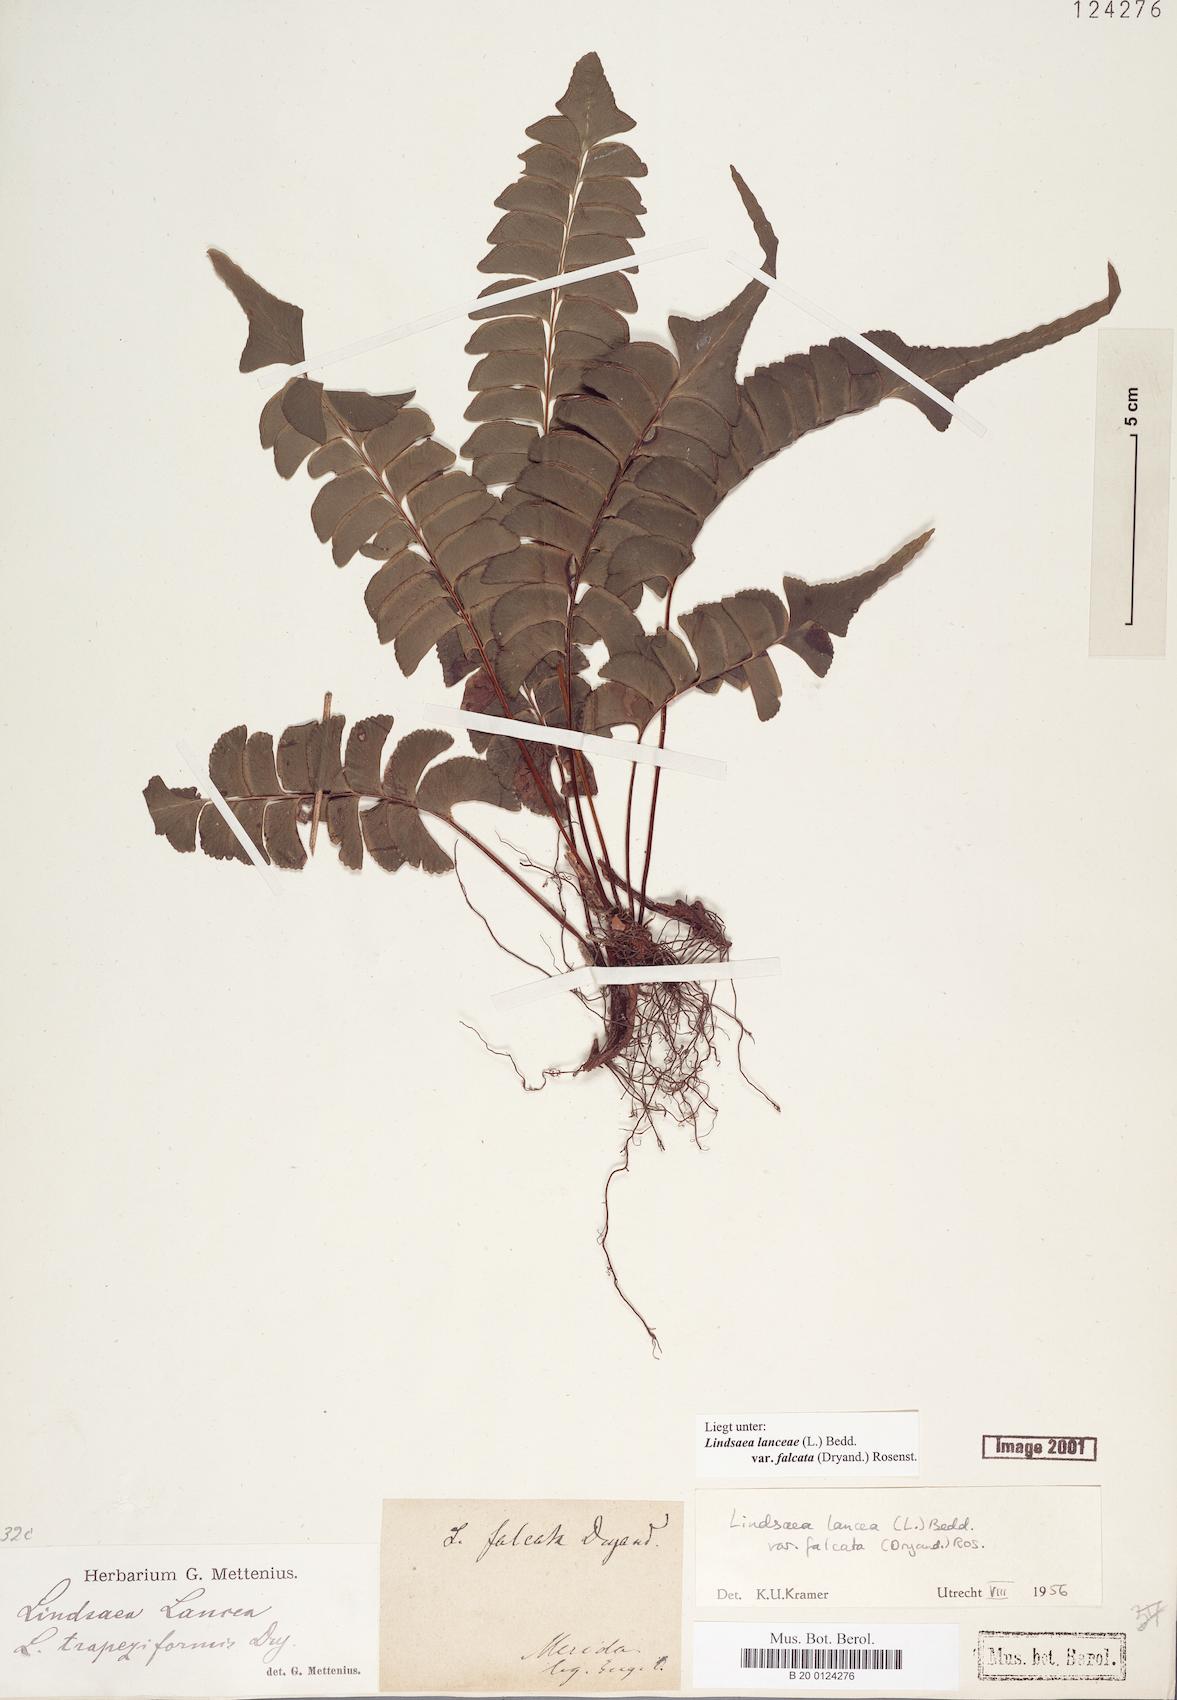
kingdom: Plantae
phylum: Tracheophyta
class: Polypodiopsida
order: Polypodiales
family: Lindsaeaceae
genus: Lindsaea
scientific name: Lindsaea falcata
